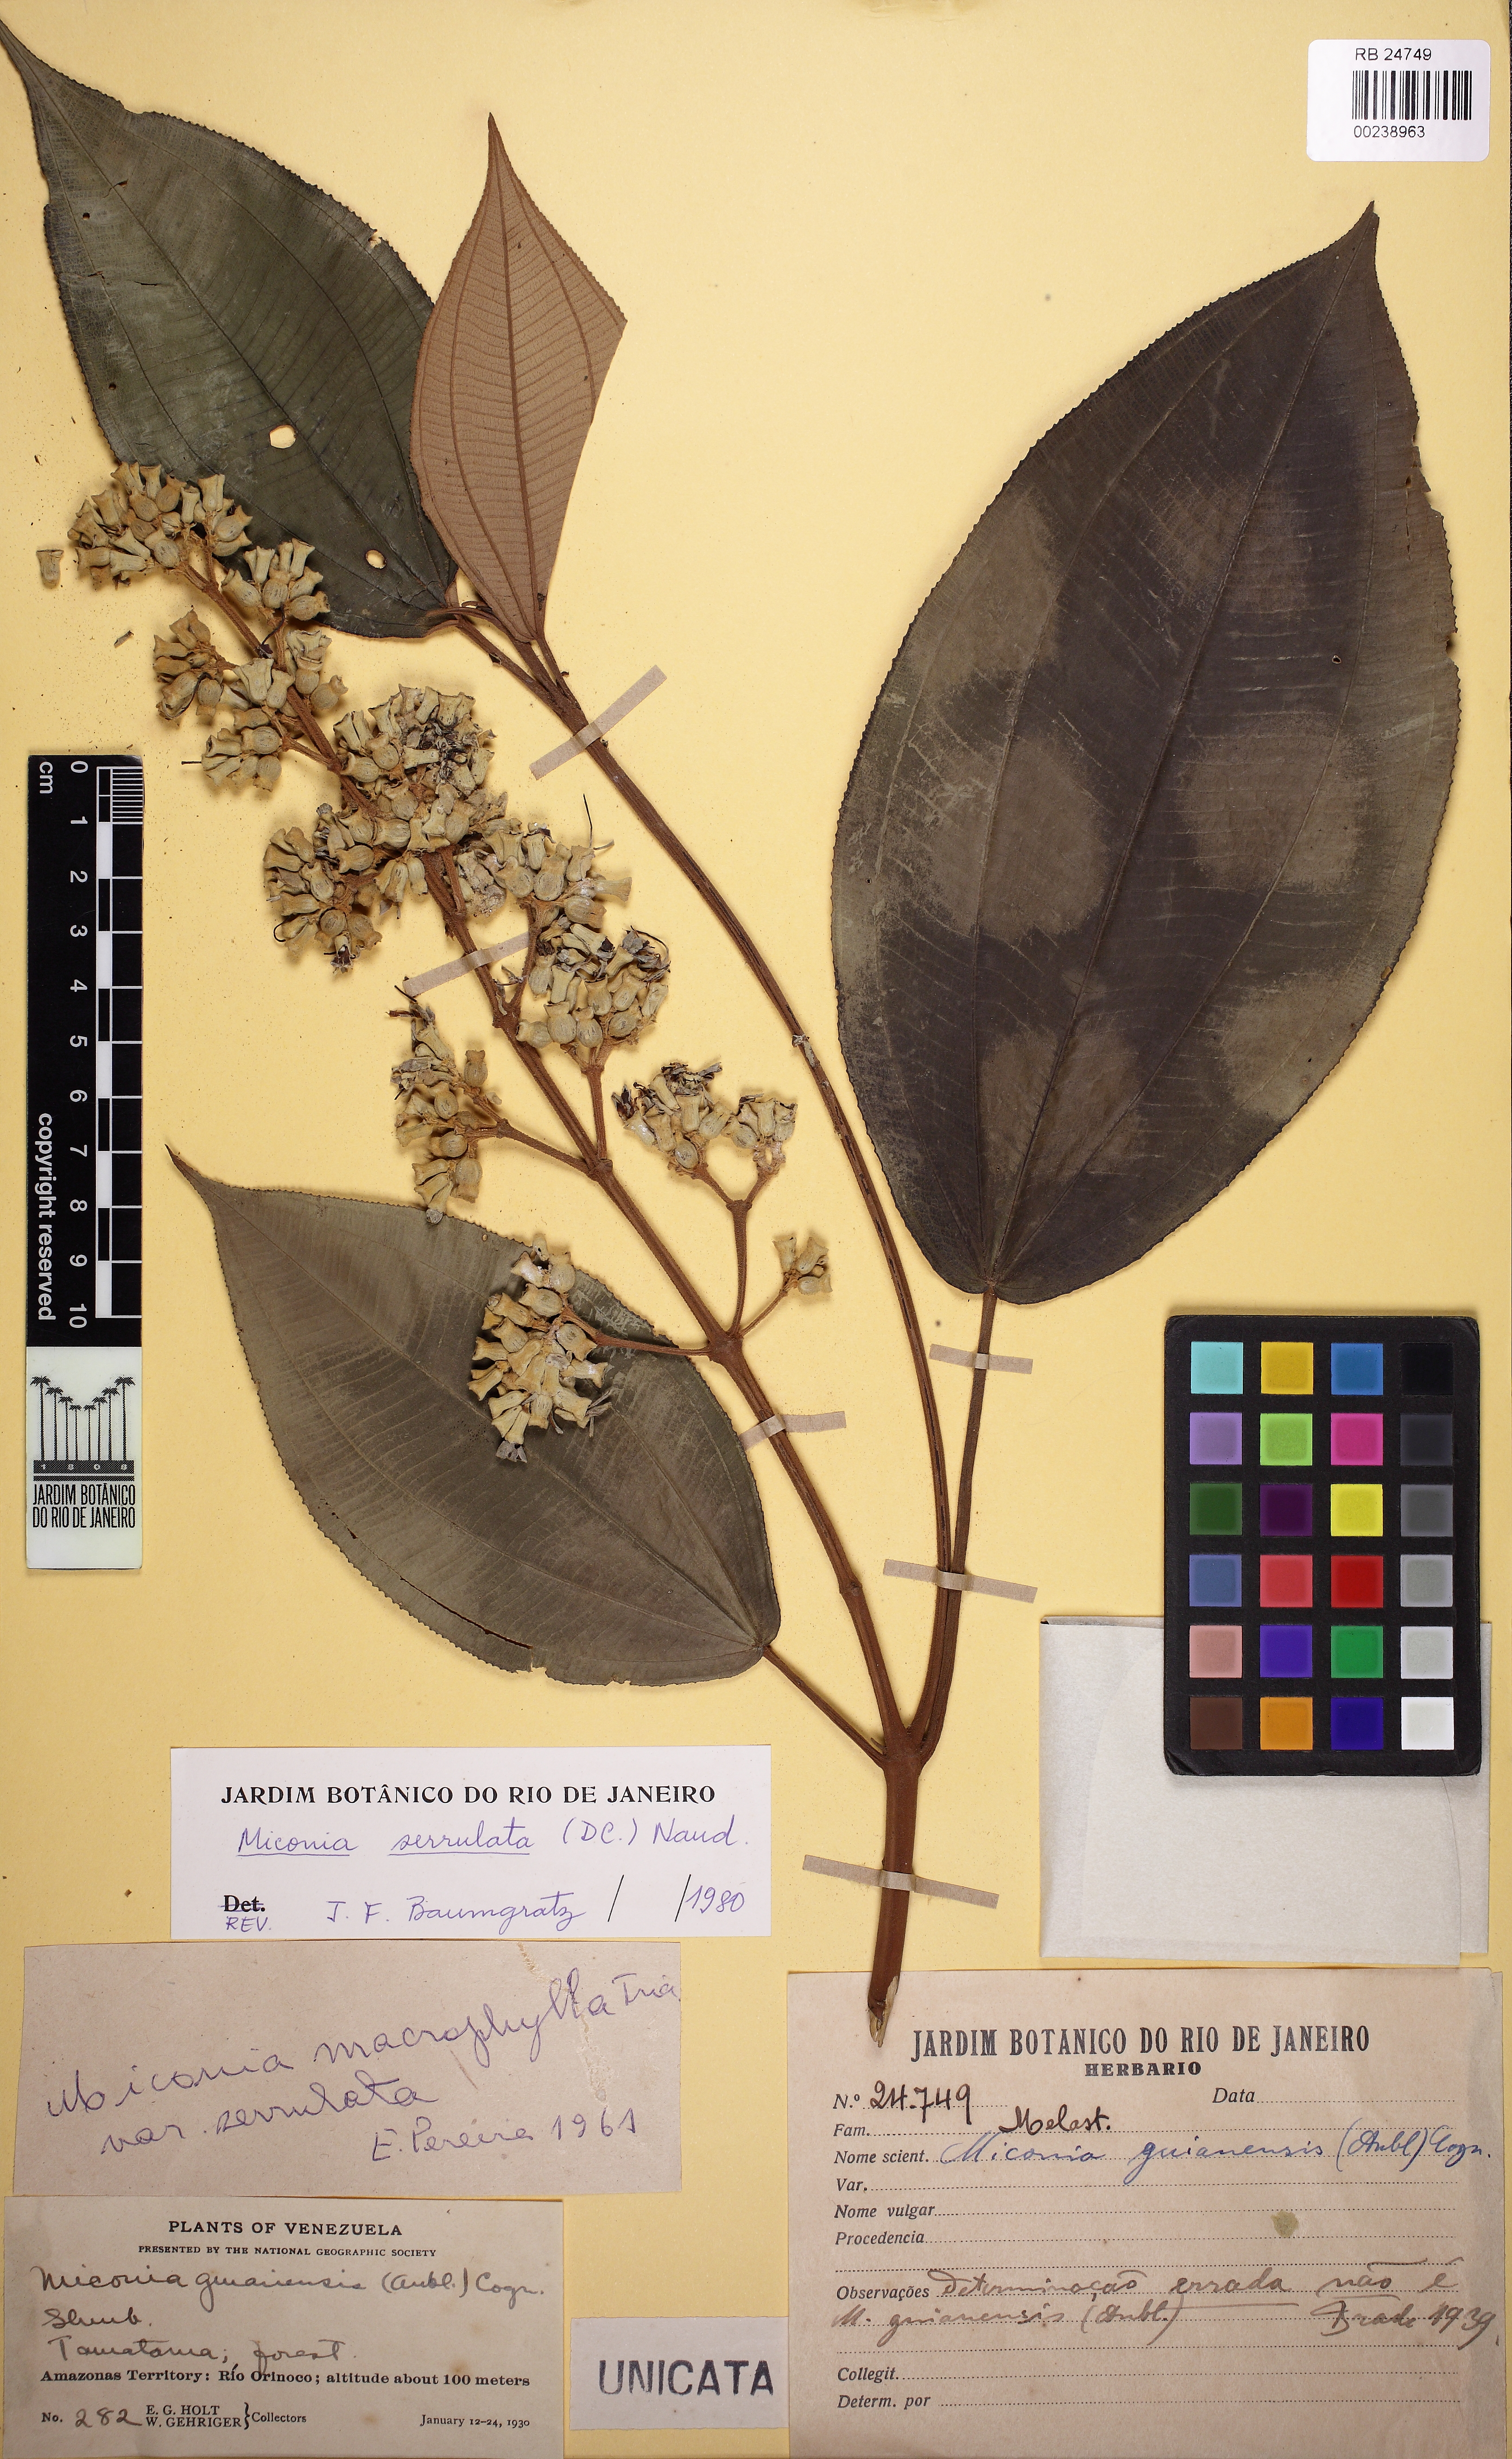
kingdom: Plantae
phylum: Tracheophyta
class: Magnoliopsida
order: Myrtales
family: Melastomataceae
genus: Miconia
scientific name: Miconia serrulata
